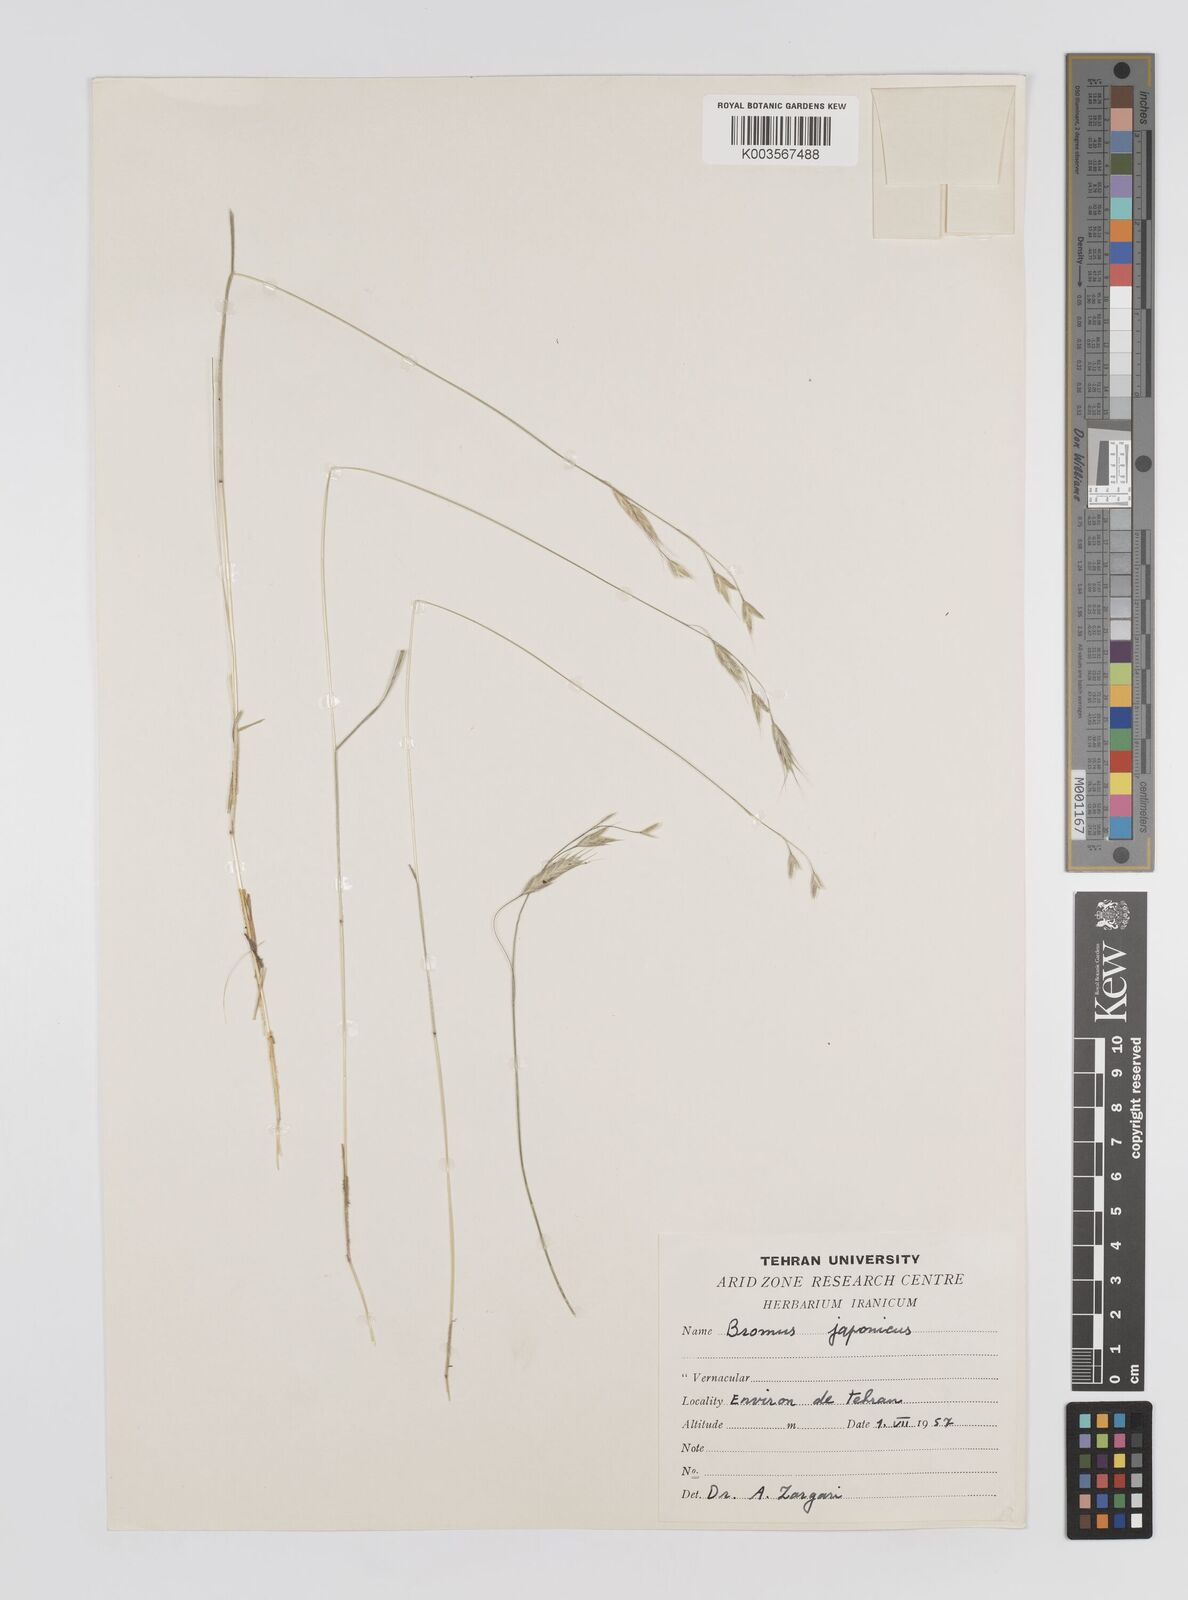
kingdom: Plantae
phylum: Tracheophyta
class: Liliopsida
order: Poales
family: Poaceae
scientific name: Poaceae
